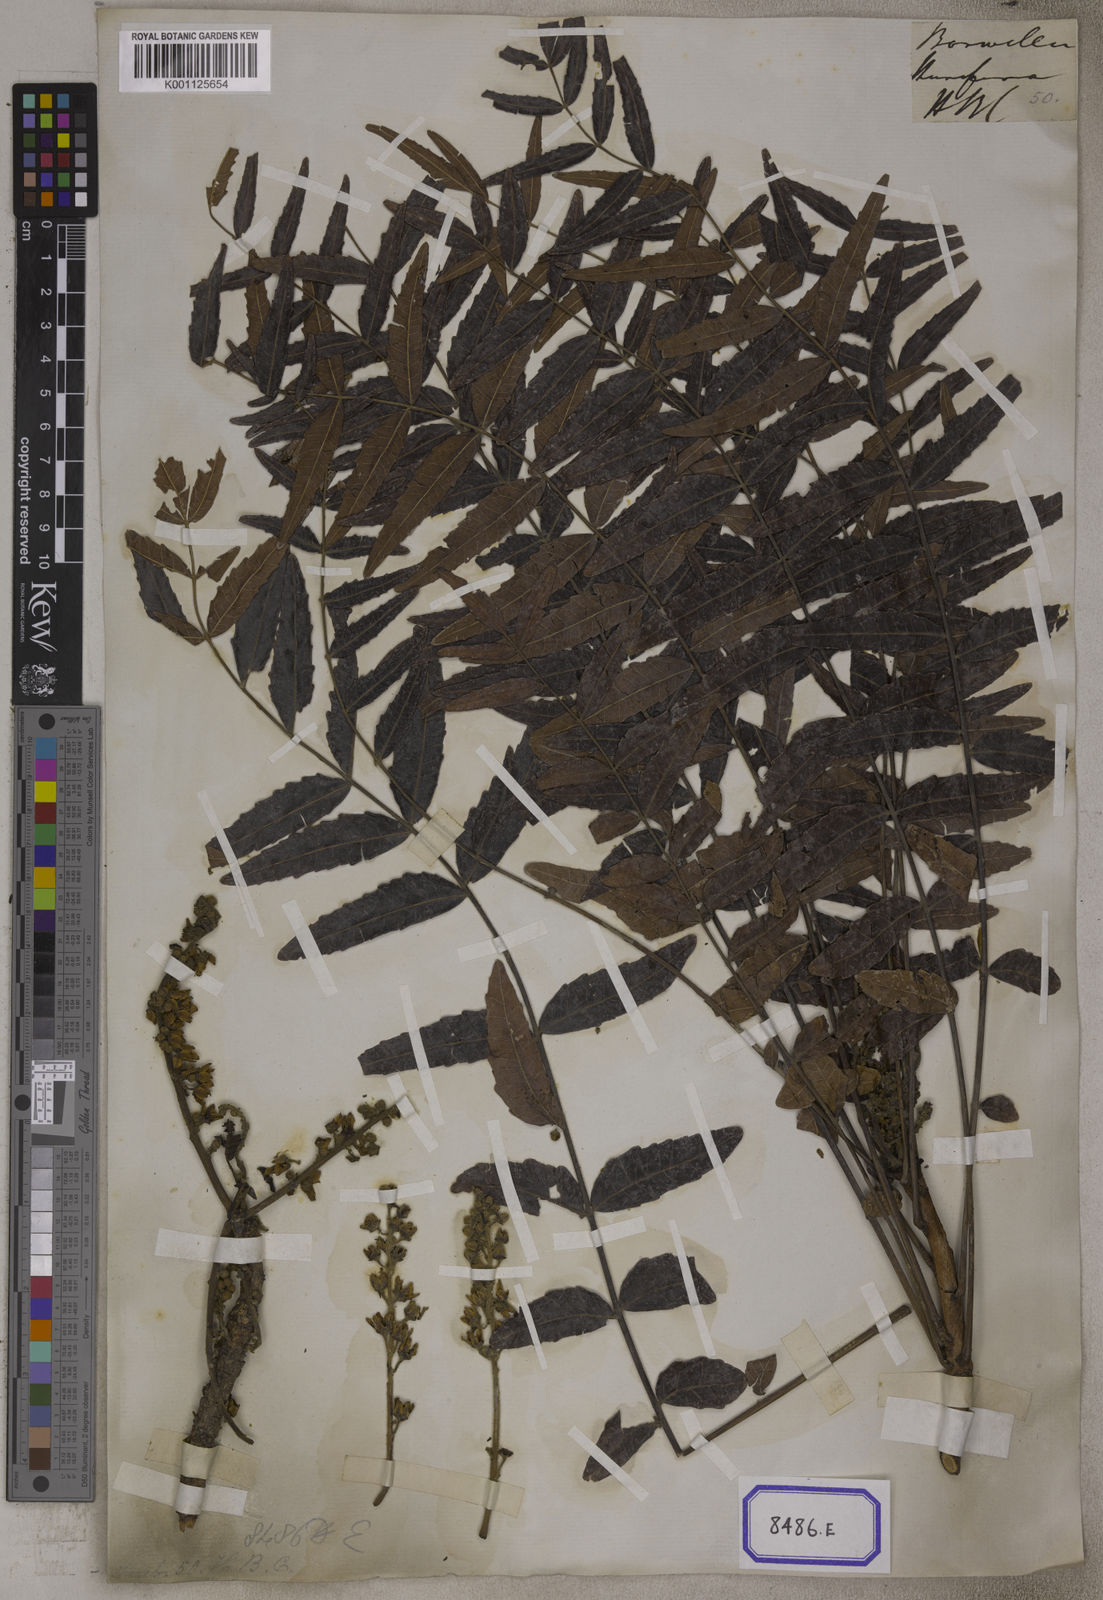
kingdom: Plantae
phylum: Tracheophyta
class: Magnoliopsida
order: Sapindales
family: Burseraceae
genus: Boswellia
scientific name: Boswellia serrata
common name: Boswellia
